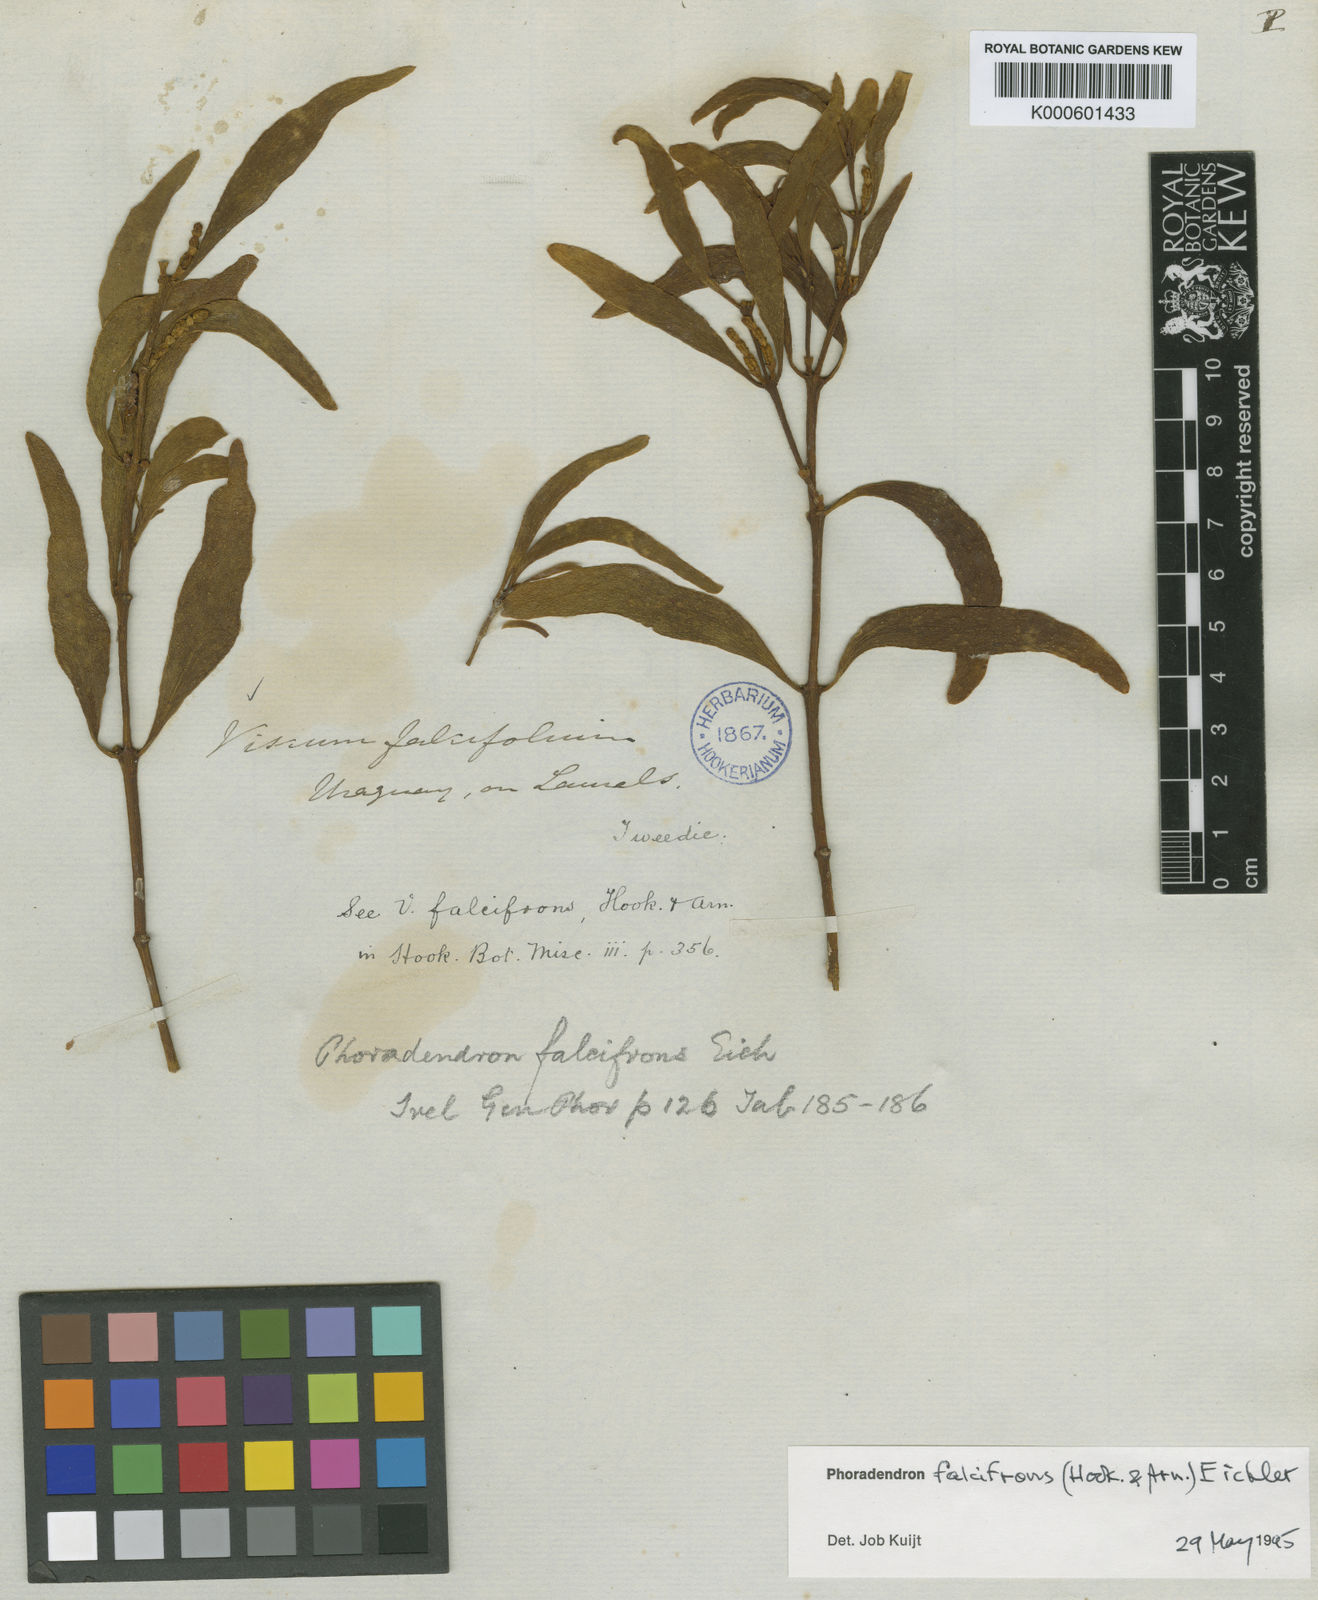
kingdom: Plantae
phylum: Tracheophyta
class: Magnoliopsida
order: Santalales
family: Viscaceae
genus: Phoradendron
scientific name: Phoradendron falcifrons
